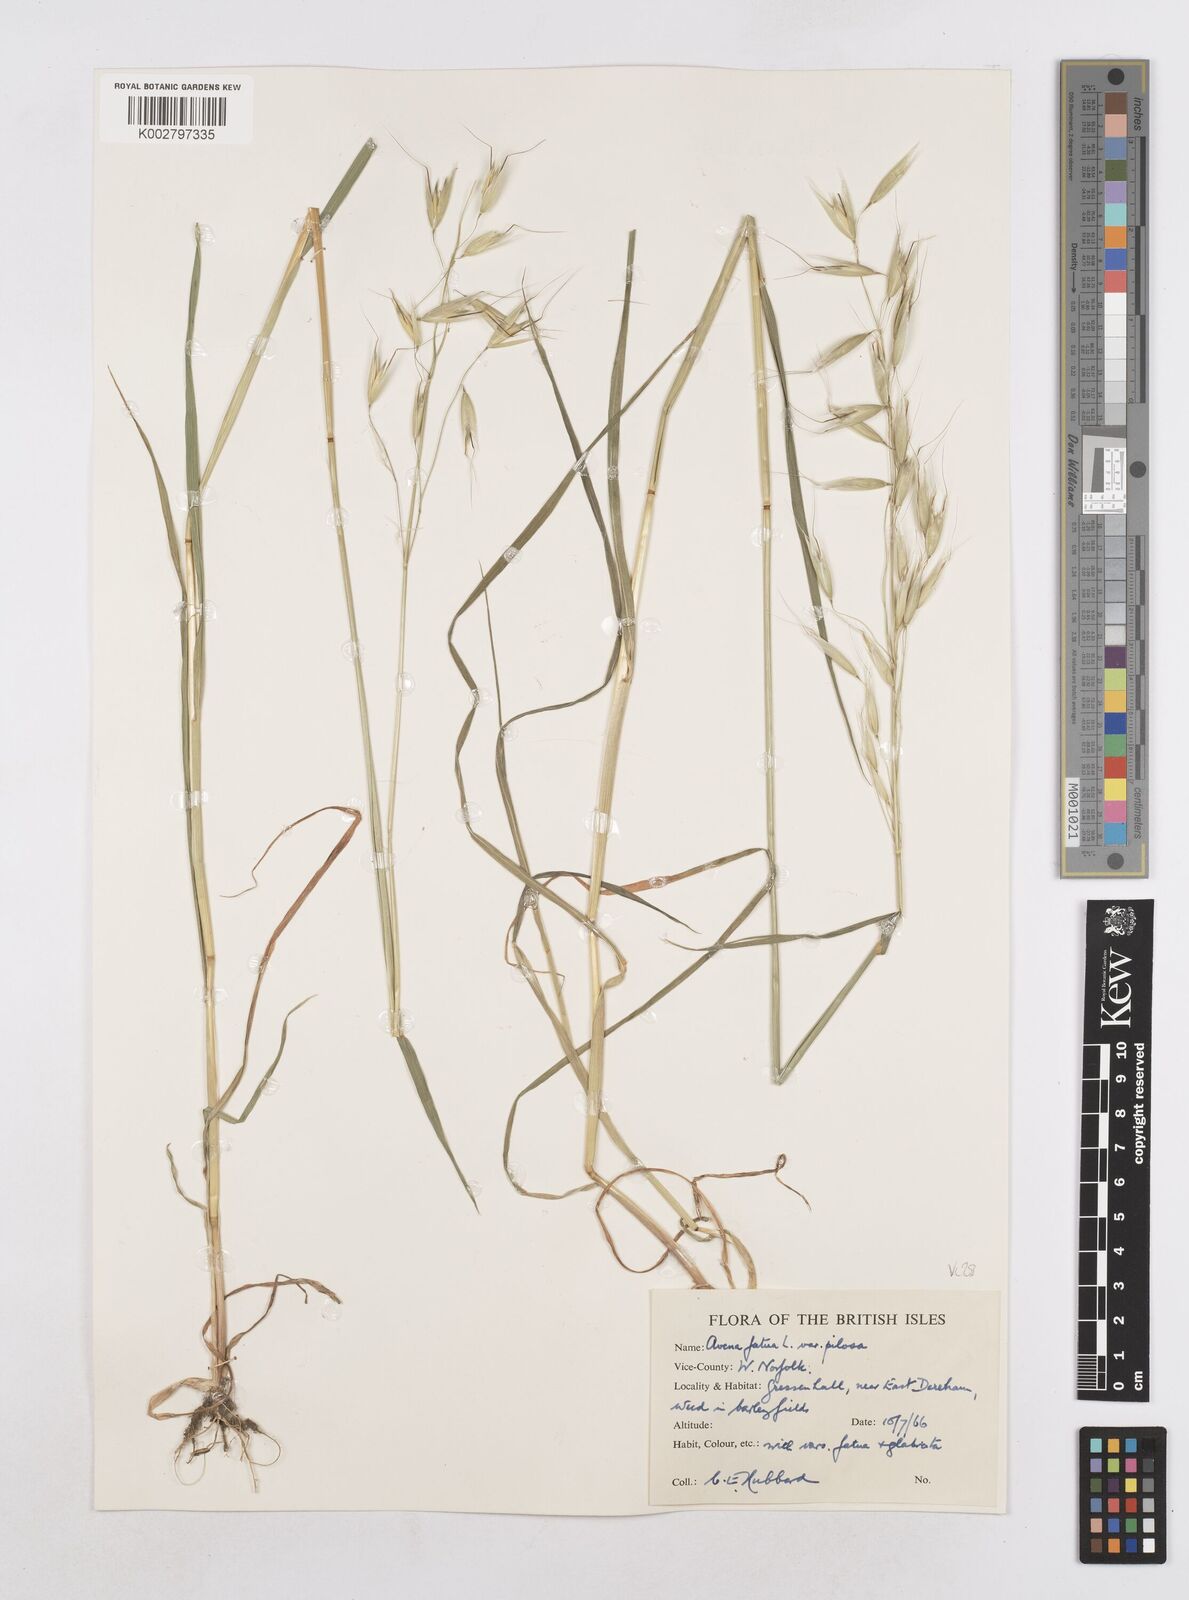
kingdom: Plantae
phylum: Tracheophyta
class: Liliopsida
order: Poales
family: Poaceae
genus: Avena
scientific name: Avena fatua
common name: Wild oat
